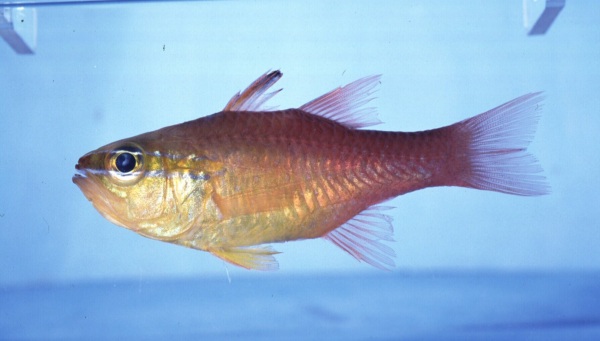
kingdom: Animalia
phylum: Chordata
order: Perciformes
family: Apogonidae
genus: Ostorhinchus
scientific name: Ostorhinchus apogonoides
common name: Goldbelly cardinalfish
